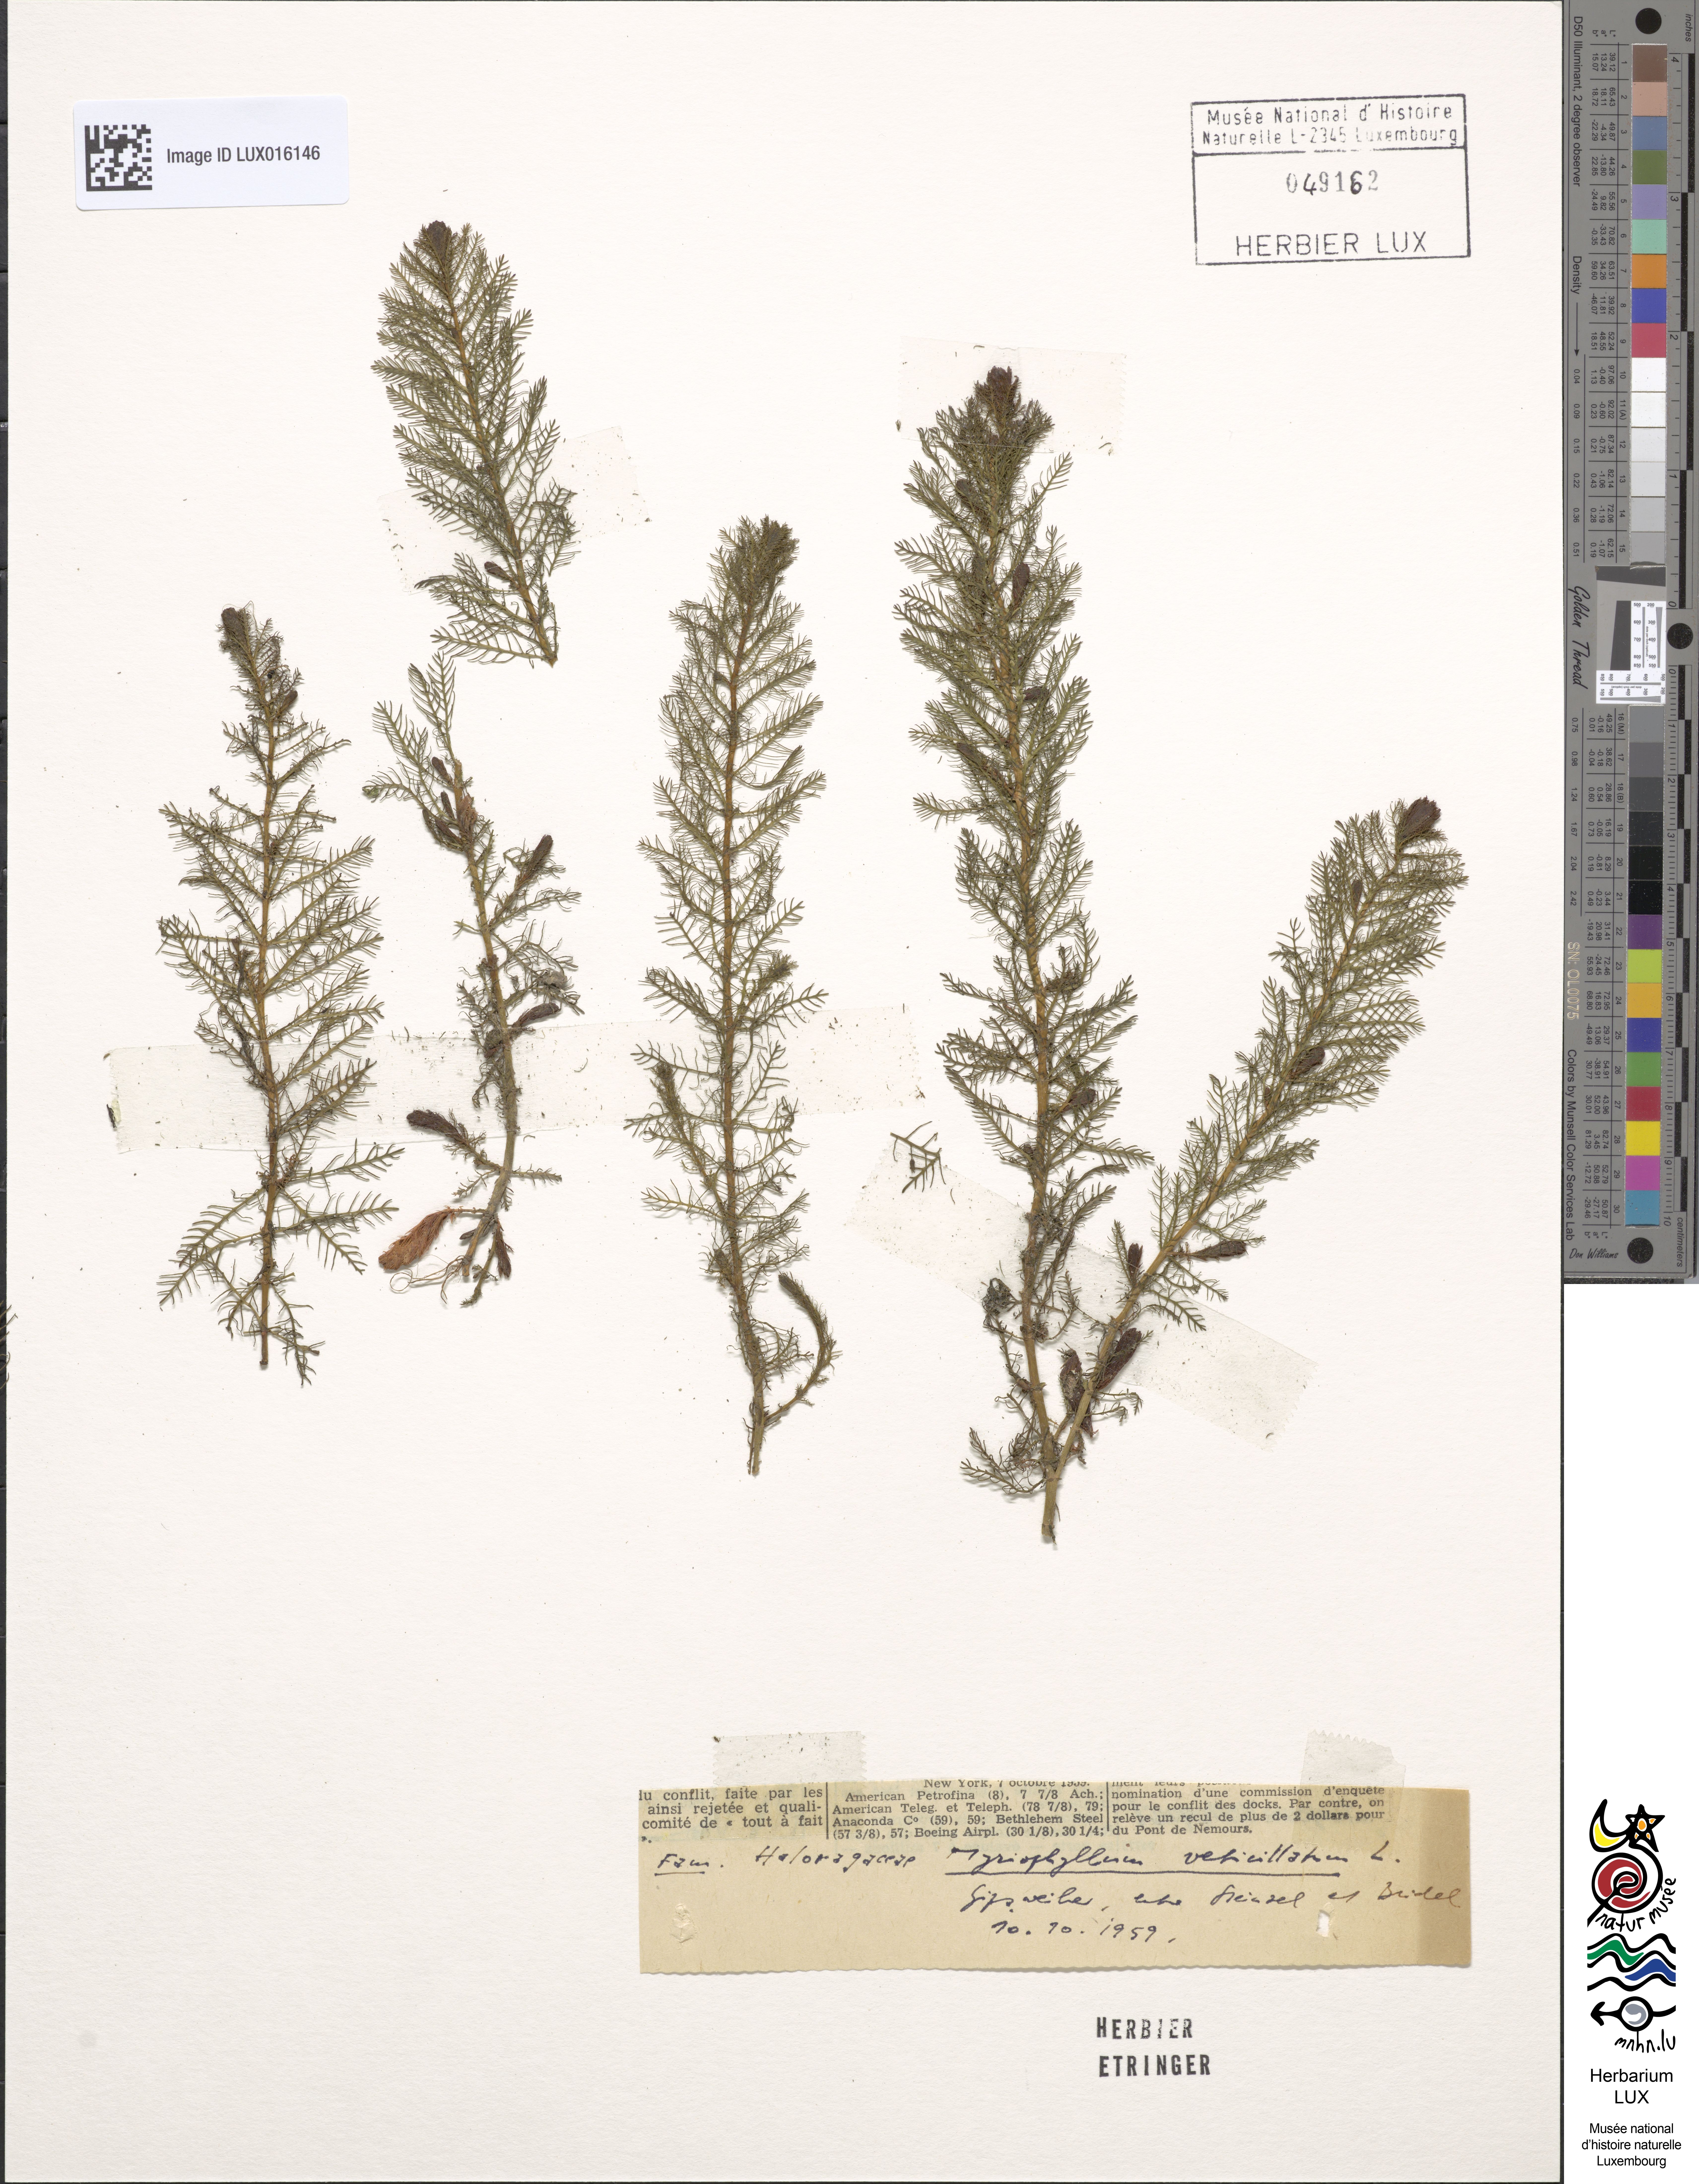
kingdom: Plantae
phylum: Tracheophyta
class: Magnoliopsida
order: Saxifragales
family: Haloragaceae
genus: Myriophyllum
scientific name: Myriophyllum verticillatum
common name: Whorled water-milfoil
